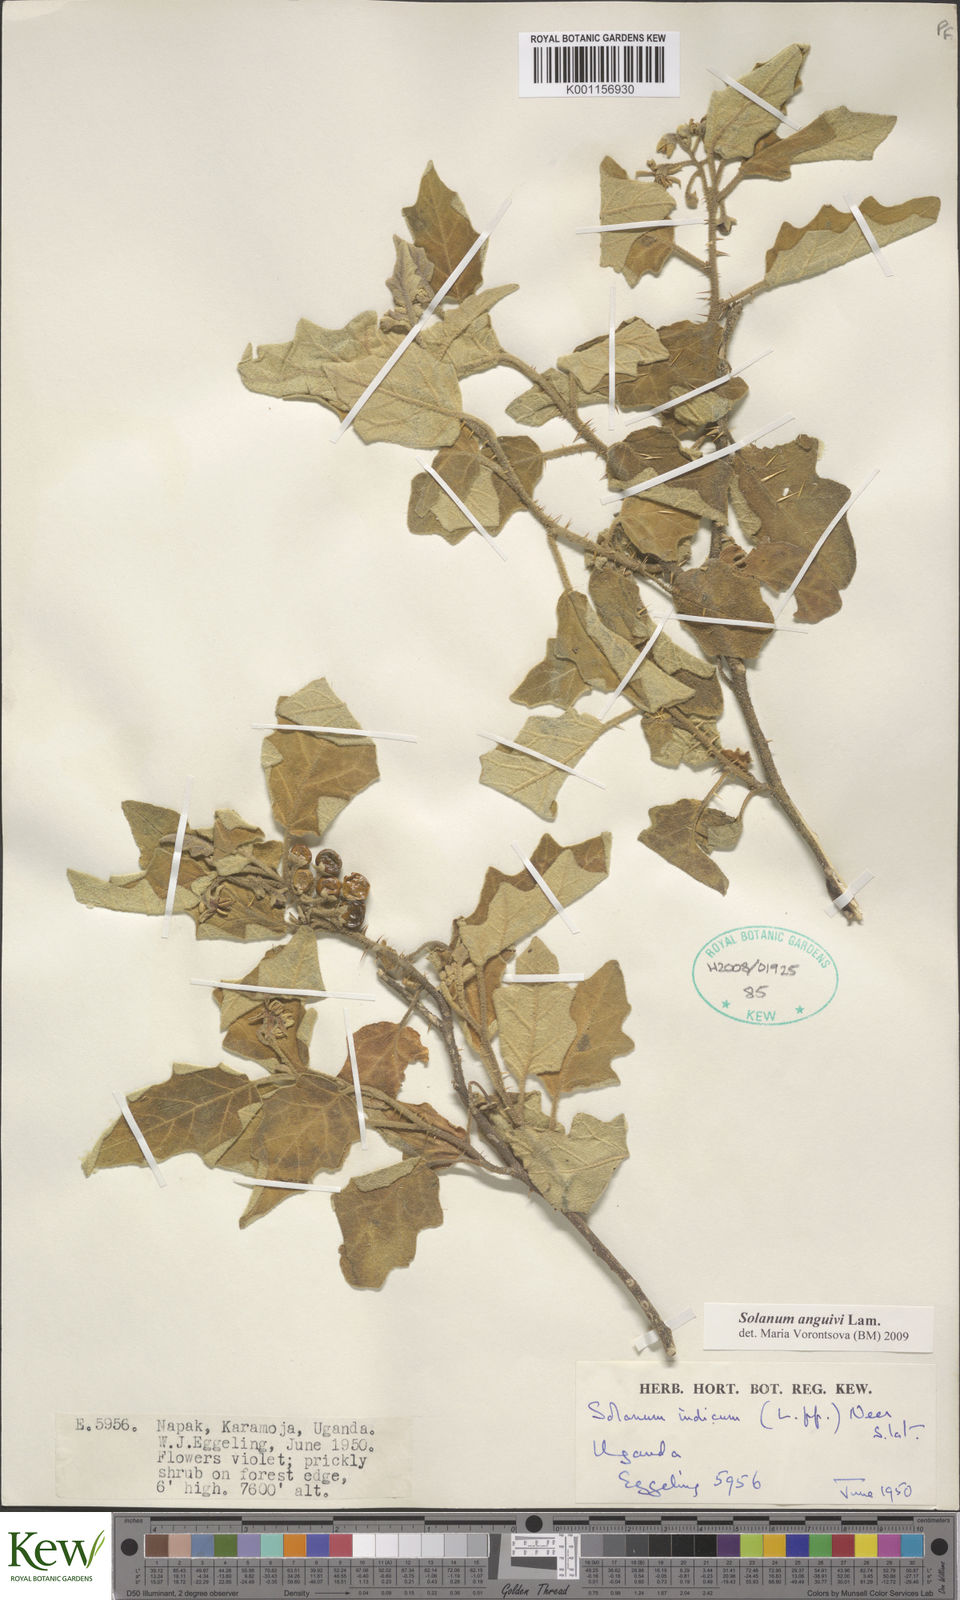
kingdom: Plantae
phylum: Tracheophyta
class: Magnoliopsida
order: Solanales
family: Solanaceae
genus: Solanum
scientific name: Solanum anguivi
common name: Forest bitterberry
